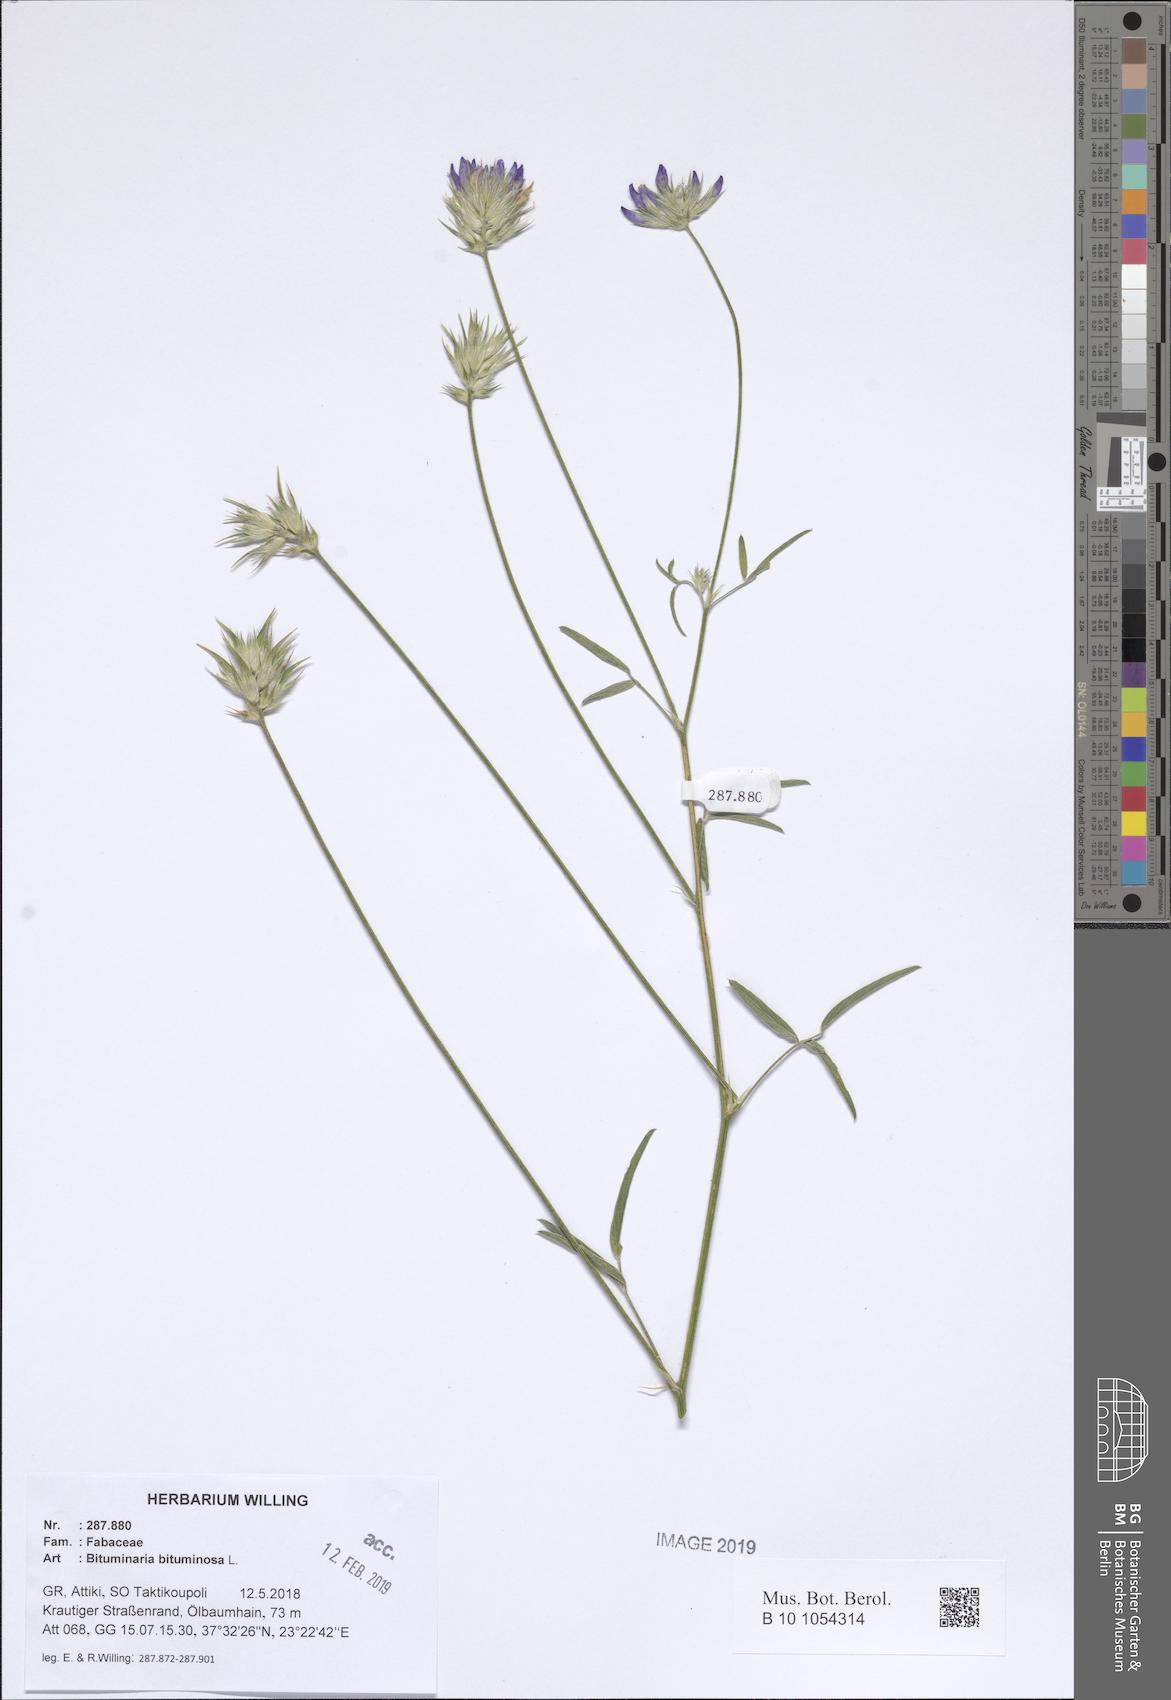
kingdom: Plantae
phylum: Tracheophyta
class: Magnoliopsida
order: Fabales
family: Fabaceae
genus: Bituminaria
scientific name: Bituminaria bituminosa
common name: Arabian pea
